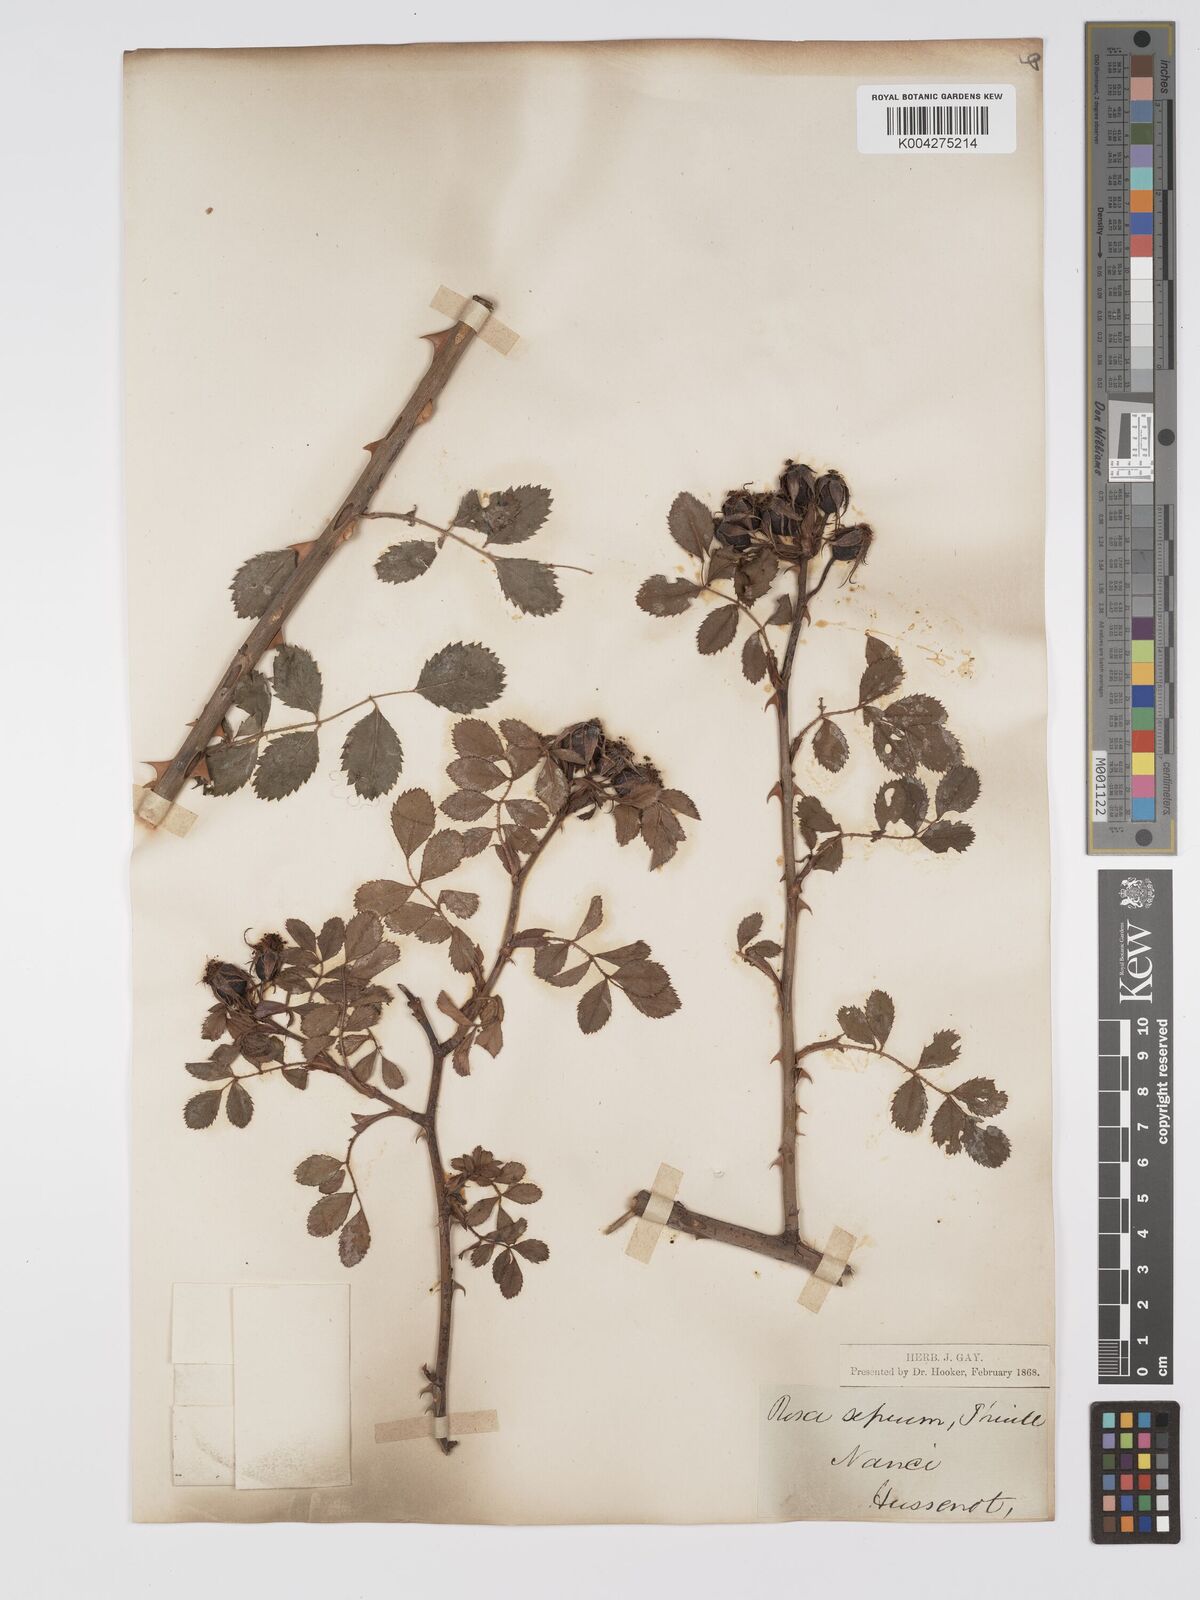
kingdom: Plantae
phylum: Tracheophyta
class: Magnoliopsida
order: Rosales
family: Rosaceae
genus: Rosa
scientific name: Rosa
